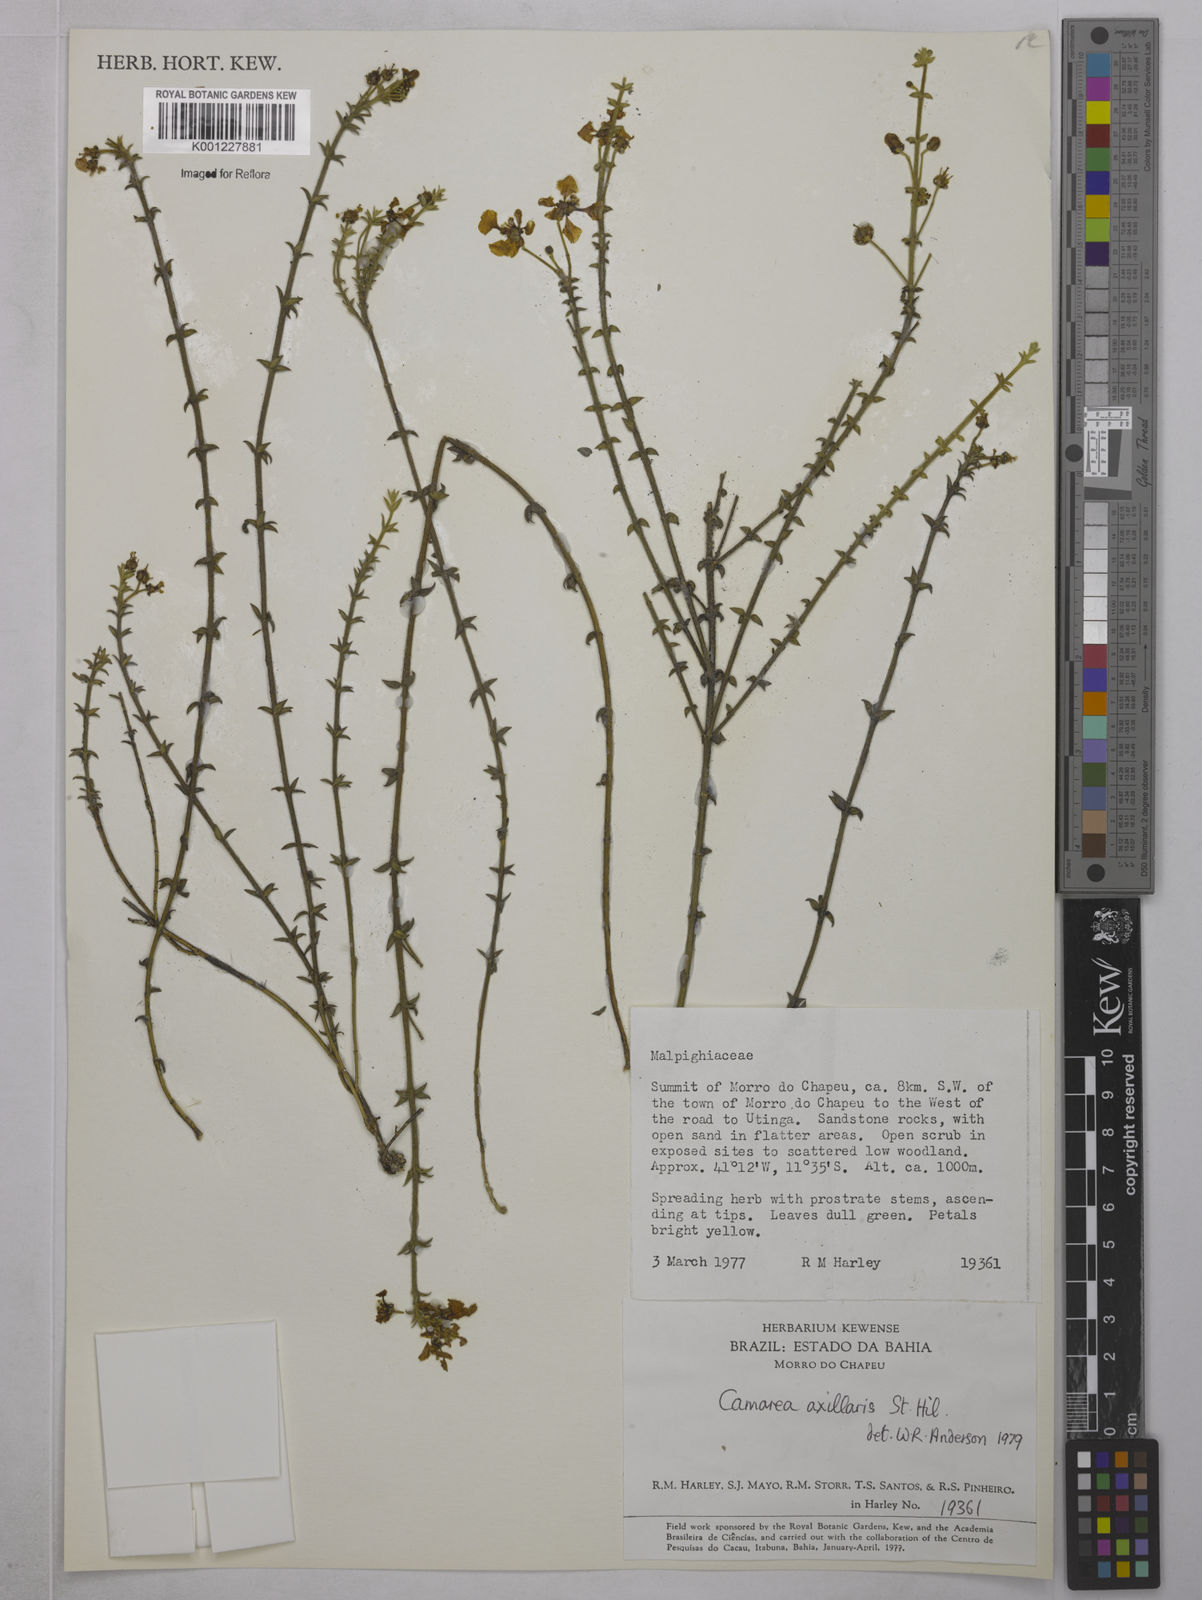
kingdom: Plantae
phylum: Tracheophyta
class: Magnoliopsida
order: Malpighiales
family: Malpighiaceae
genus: Camarea
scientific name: Camarea axillaris
